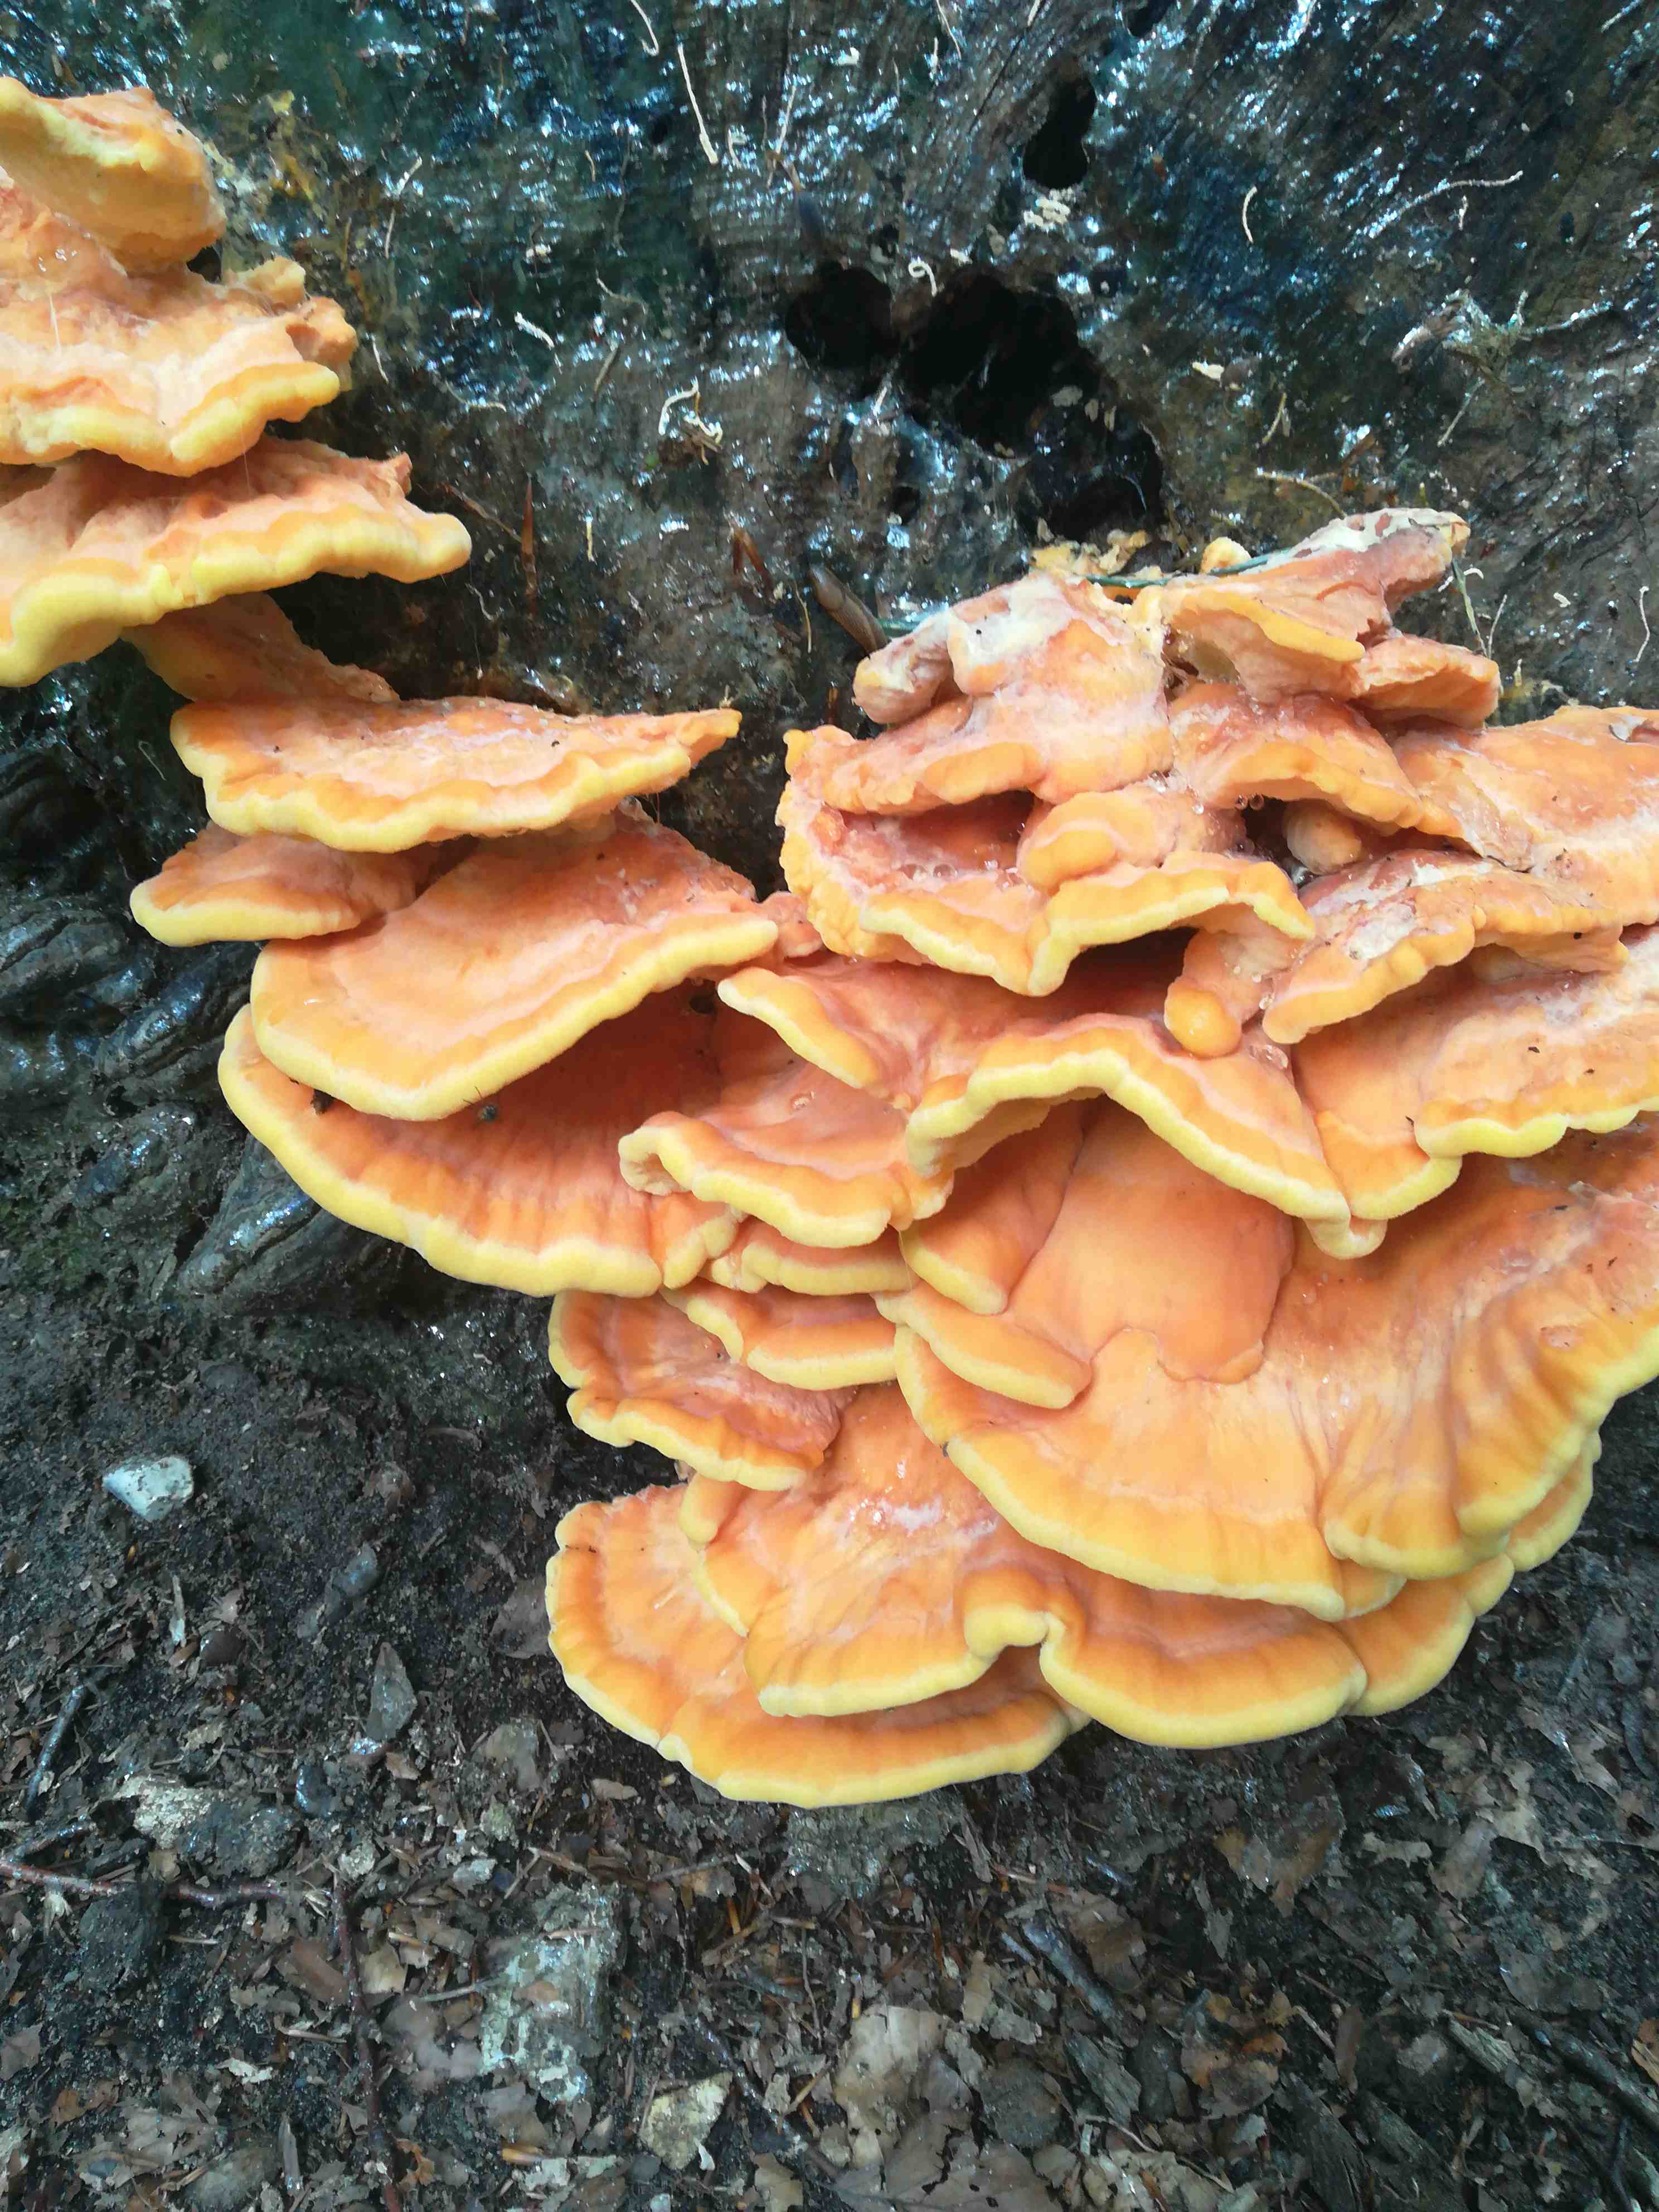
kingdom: Fungi
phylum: Basidiomycota
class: Agaricomycetes
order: Polyporales
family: Laetiporaceae
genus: Laetiporus
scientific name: Laetiporus sulphureus
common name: svovlporesvamp
